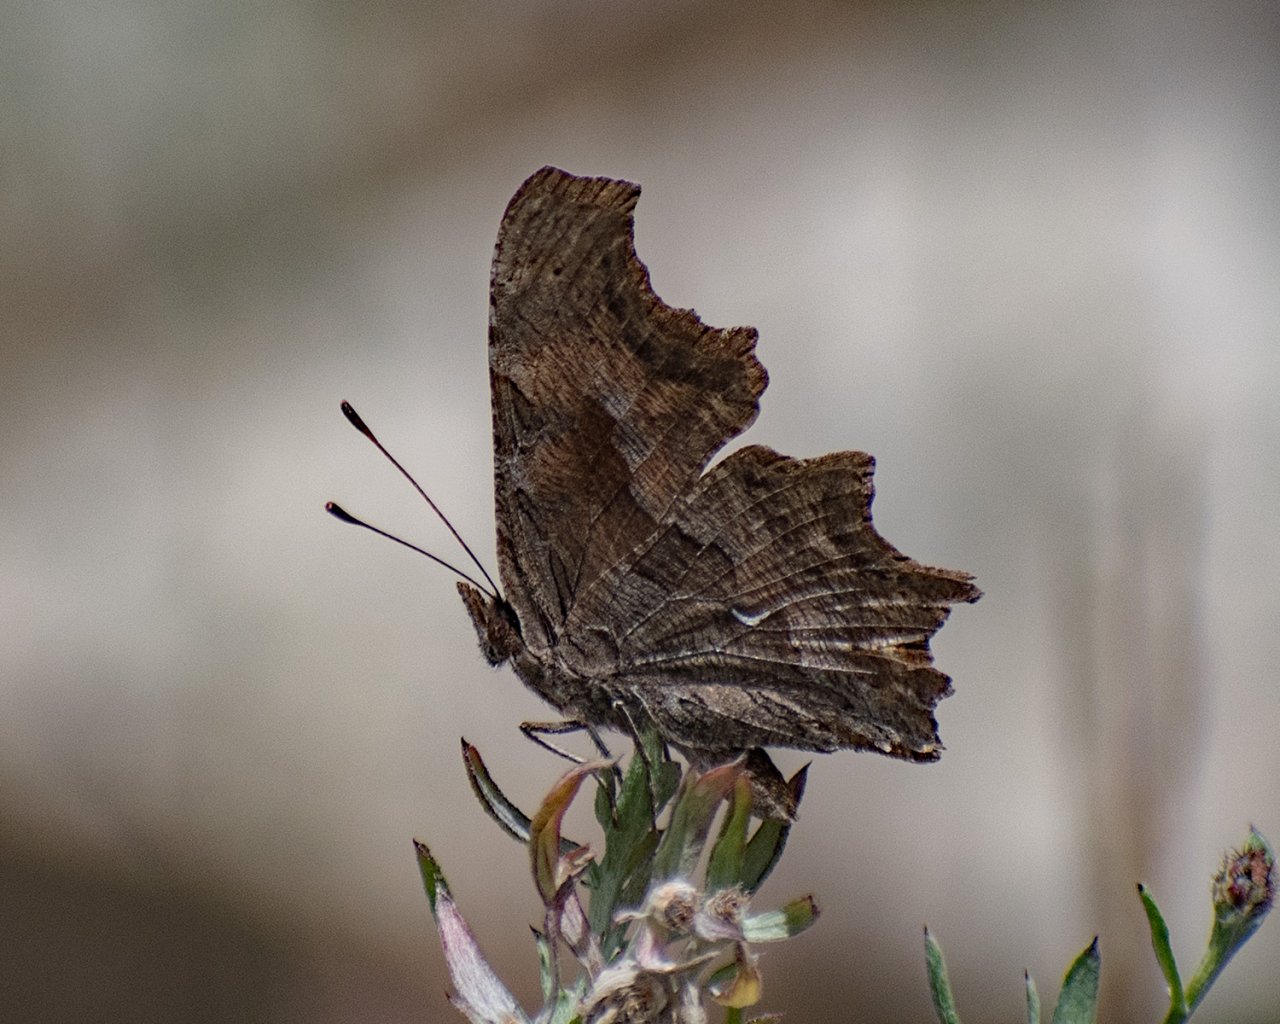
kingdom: Animalia
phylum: Arthropoda
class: Insecta
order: Lepidoptera
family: Nymphalidae
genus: Polygonia
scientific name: Polygonia satyrus
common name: Satyr Comma
